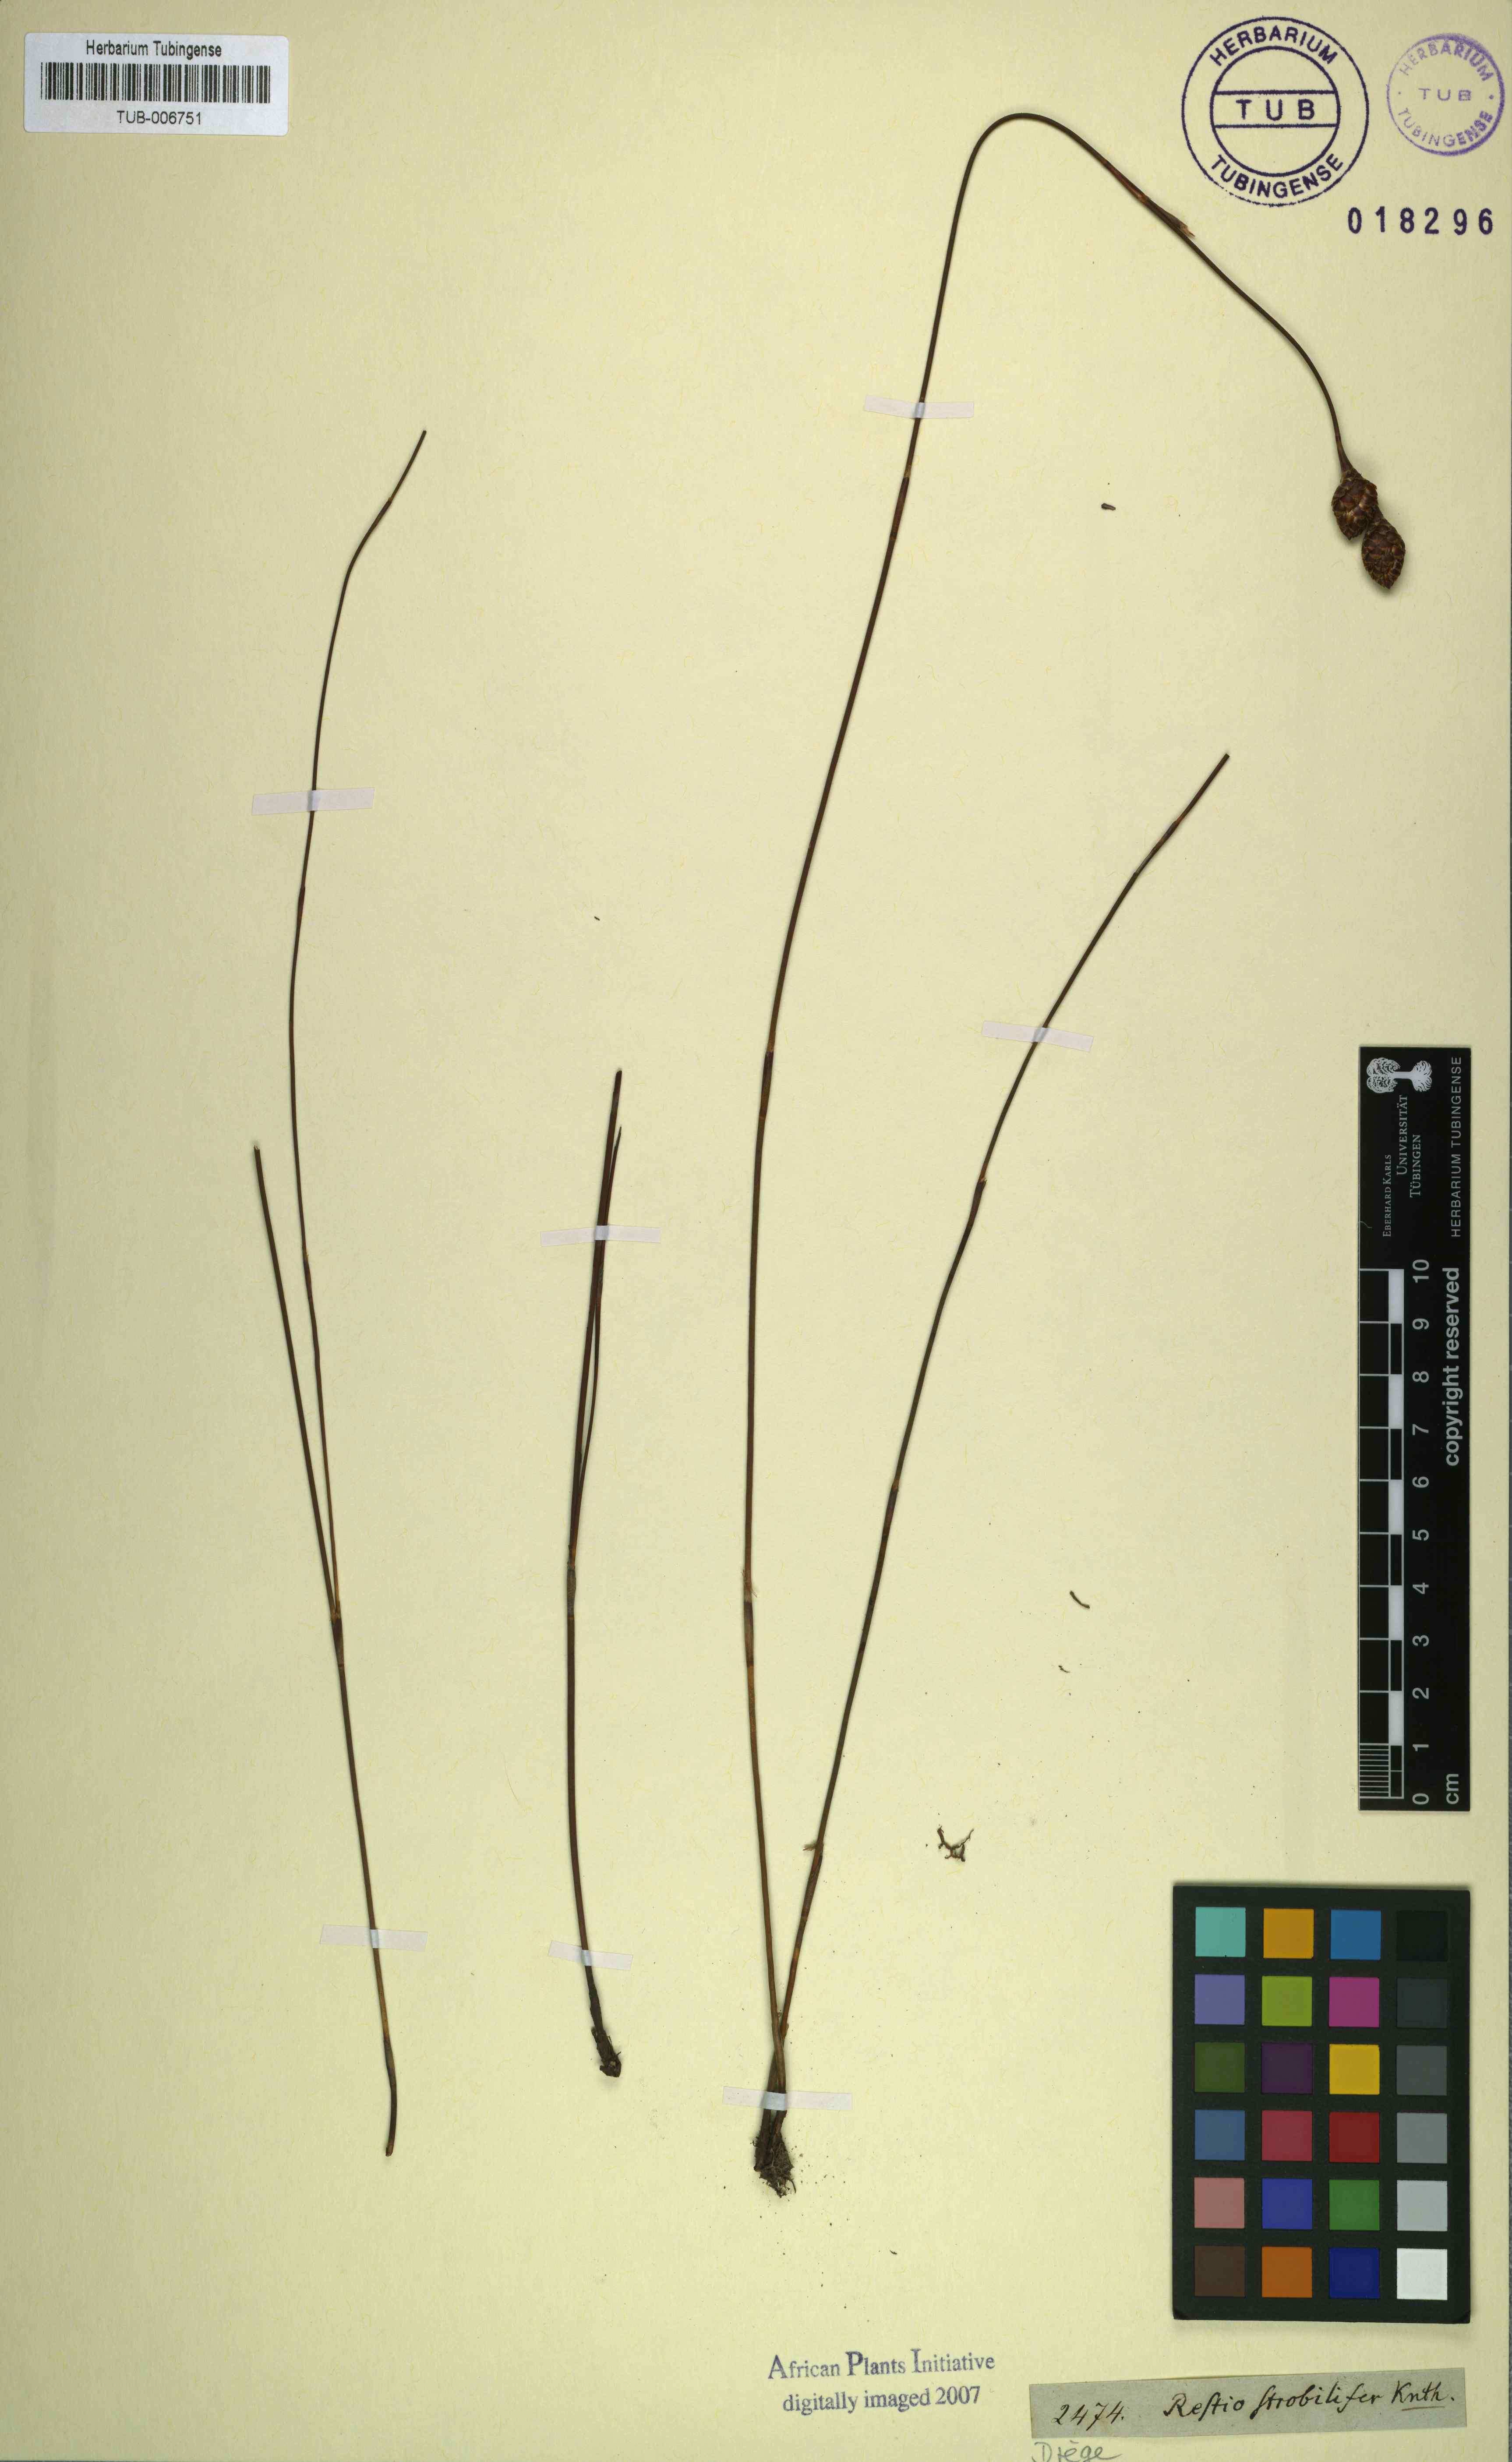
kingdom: Plantae
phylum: Tracheophyta
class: Liliopsida
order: Poales
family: Restionaceae
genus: Restio
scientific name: Restio strobilifer
